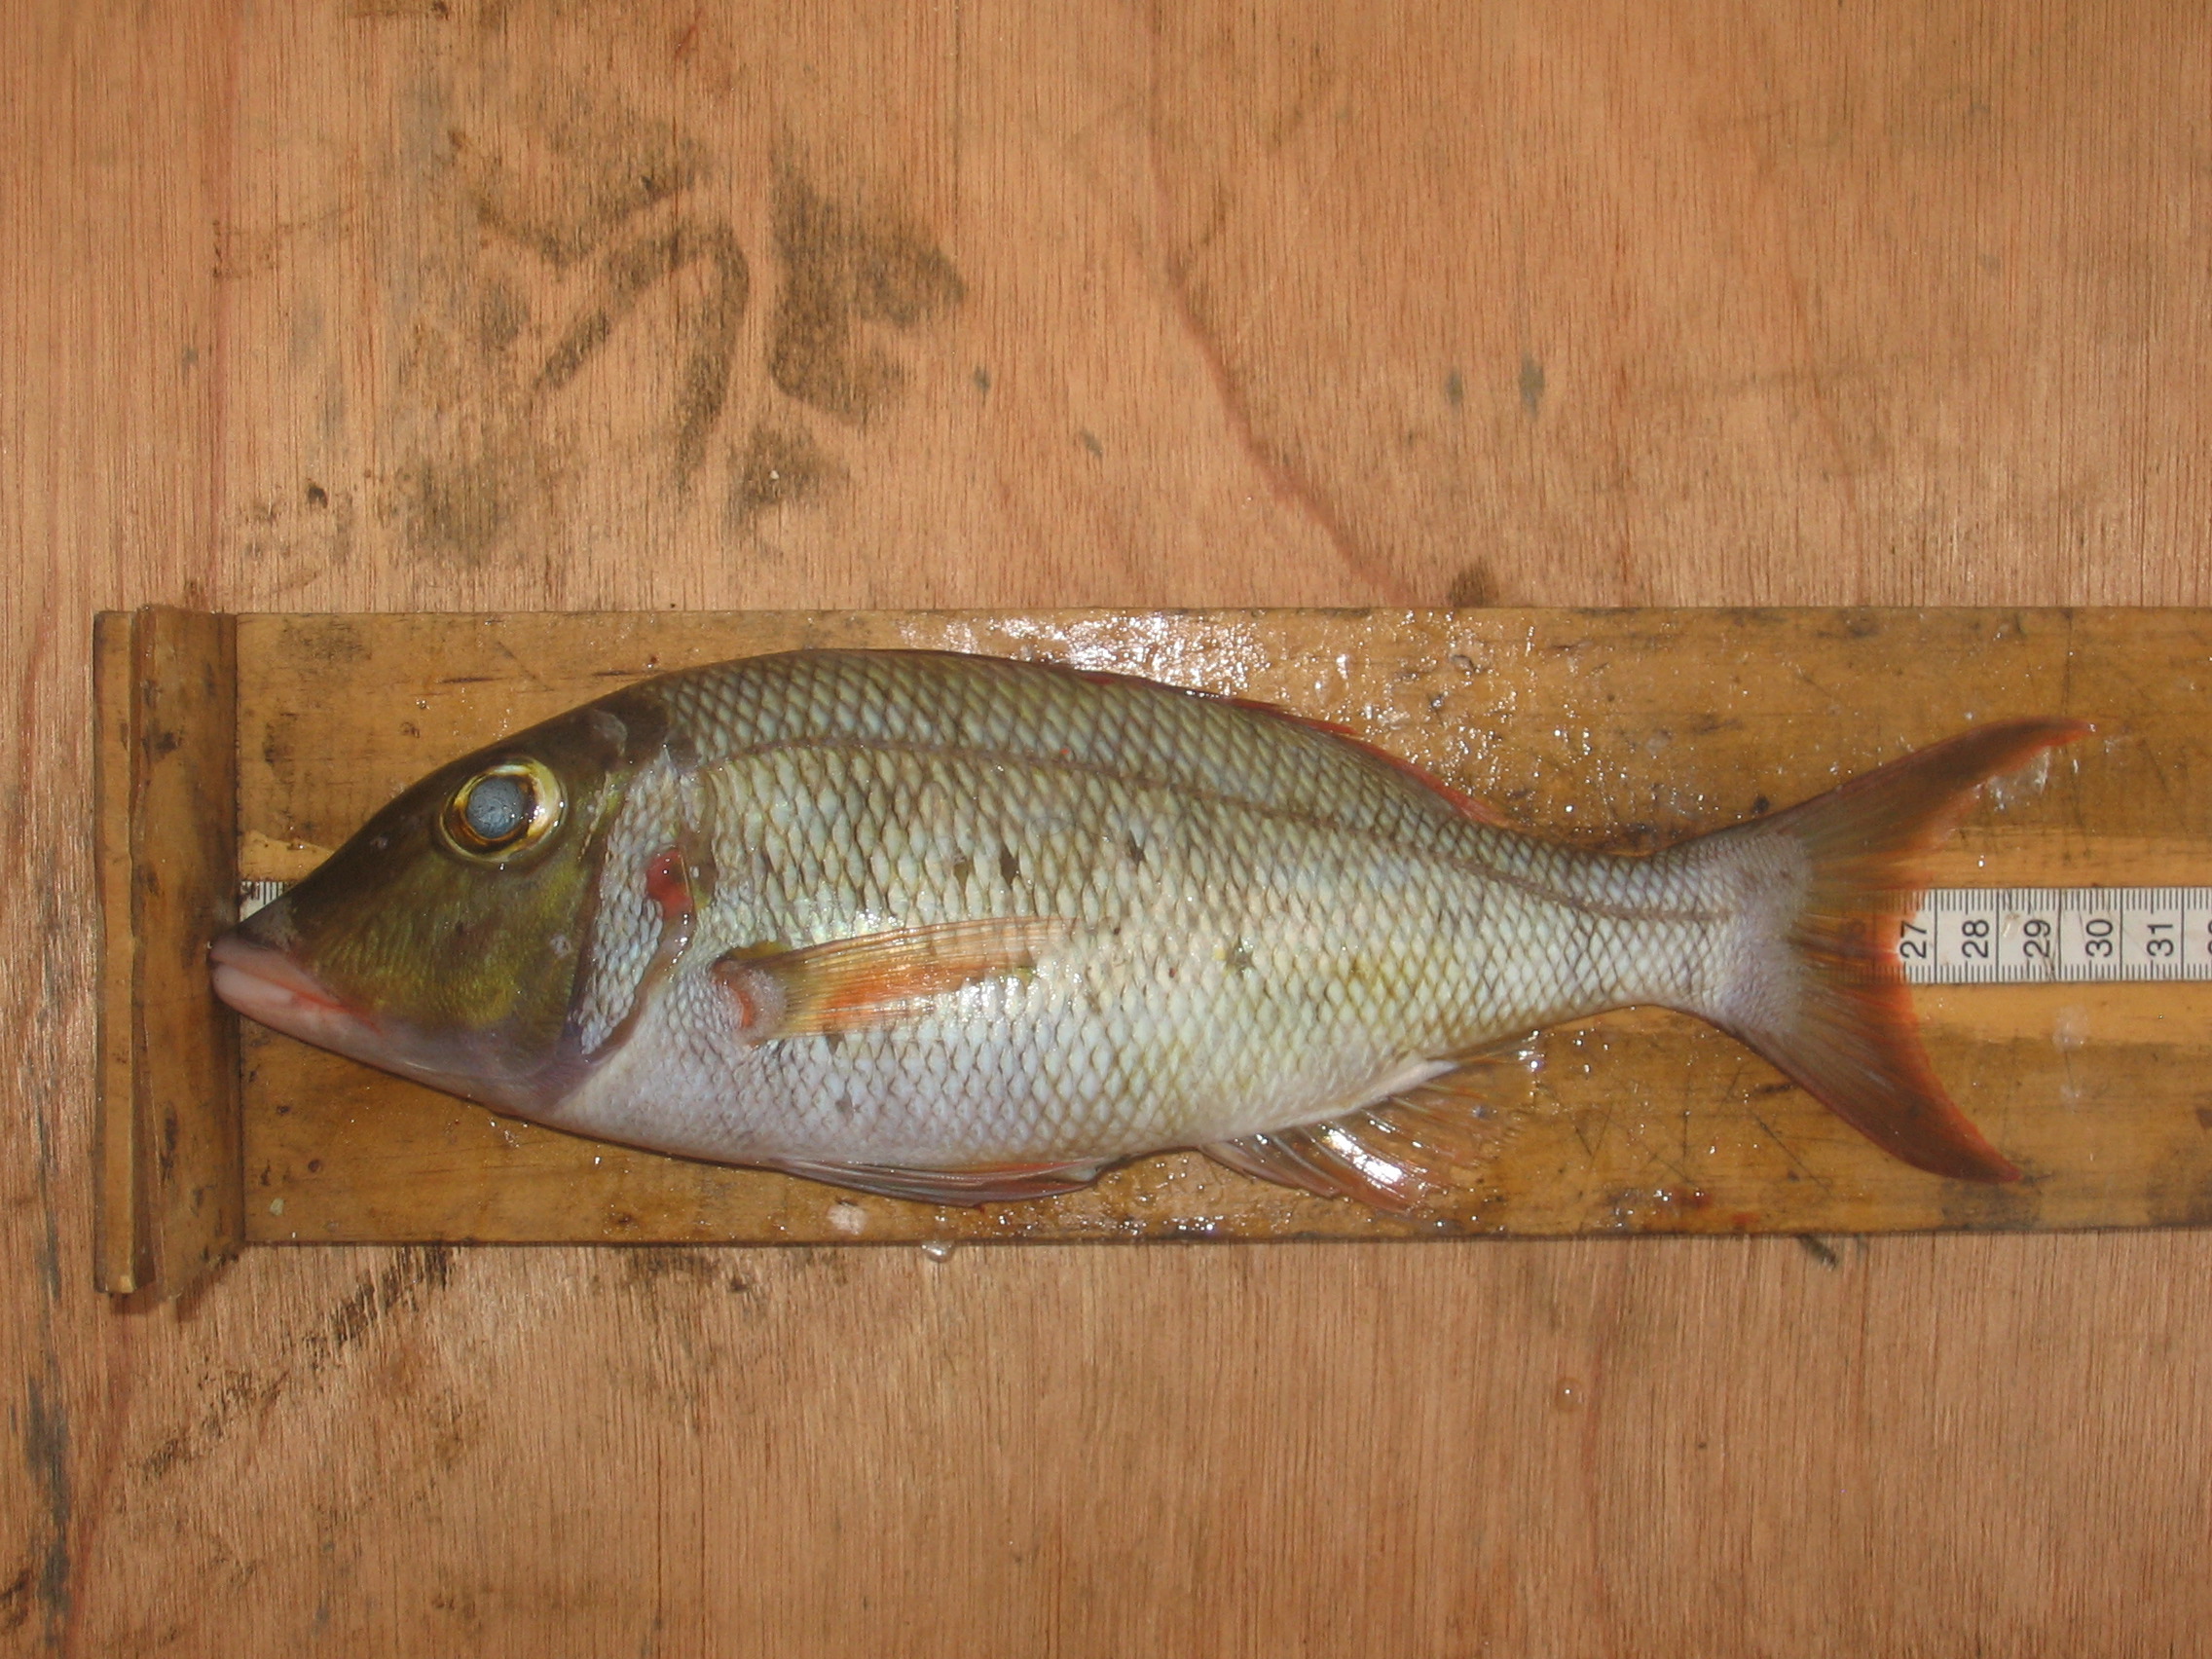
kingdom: Animalia
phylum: Chordata
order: Perciformes
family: Lethrinidae
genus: Lethrinus
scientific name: Lethrinus
